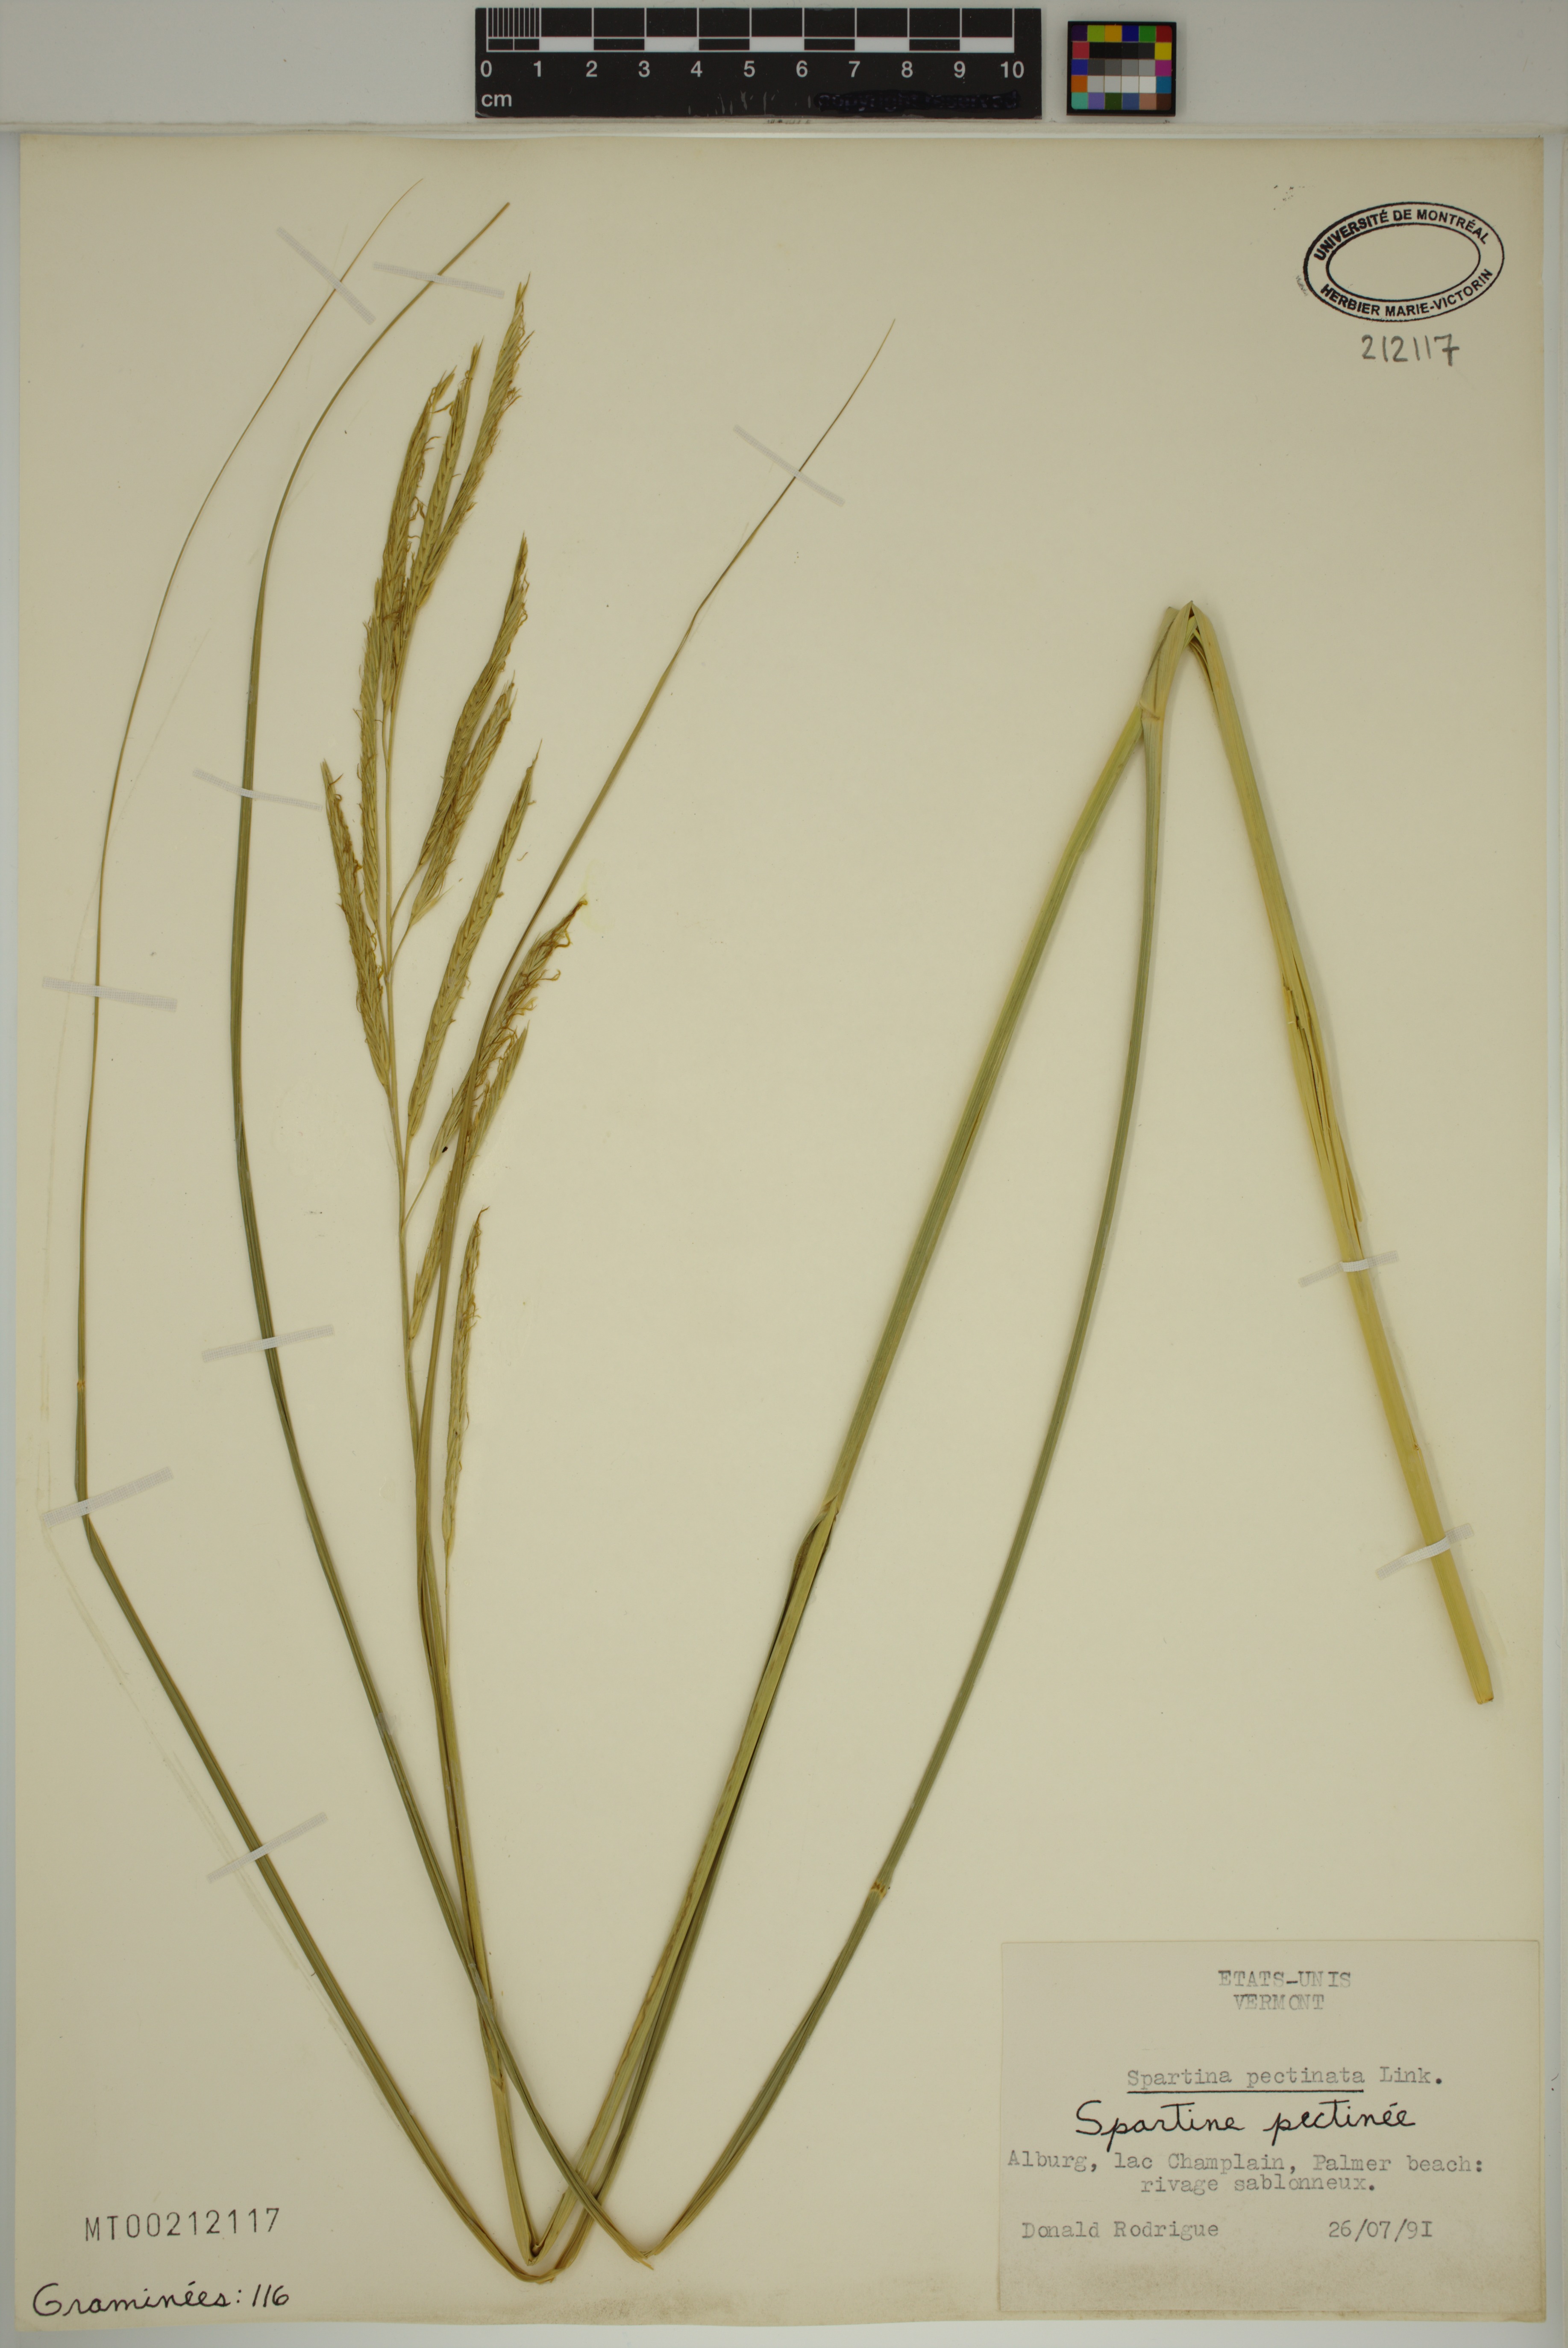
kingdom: Plantae
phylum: Tracheophyta
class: Liliopsida
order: Poales
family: Poaceae
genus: Sporobolus
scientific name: Sporobolus michauxianus
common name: Freshwater cordgrass
